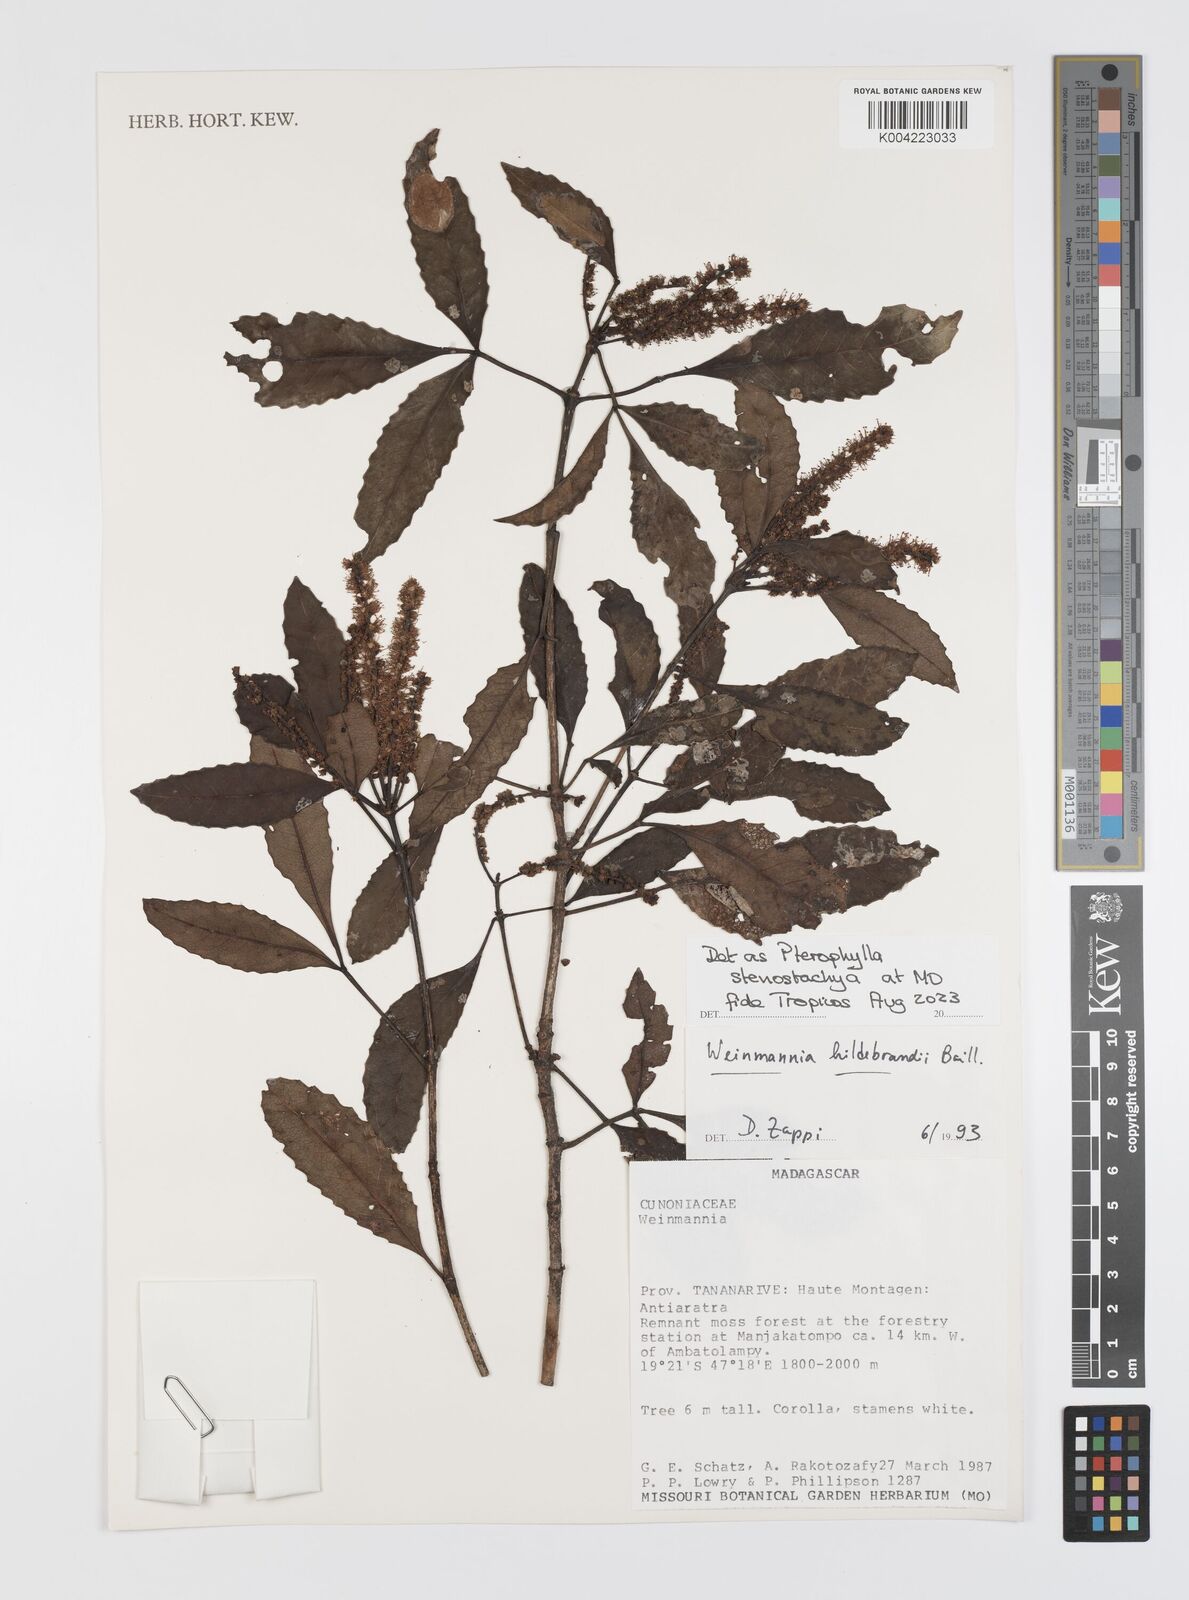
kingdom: Plantae
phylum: Tracheophyta
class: Magnoliopsida
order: Oxalidales
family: Cunoniaceae
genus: Pterophylla
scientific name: Pterophylla stenostachya
